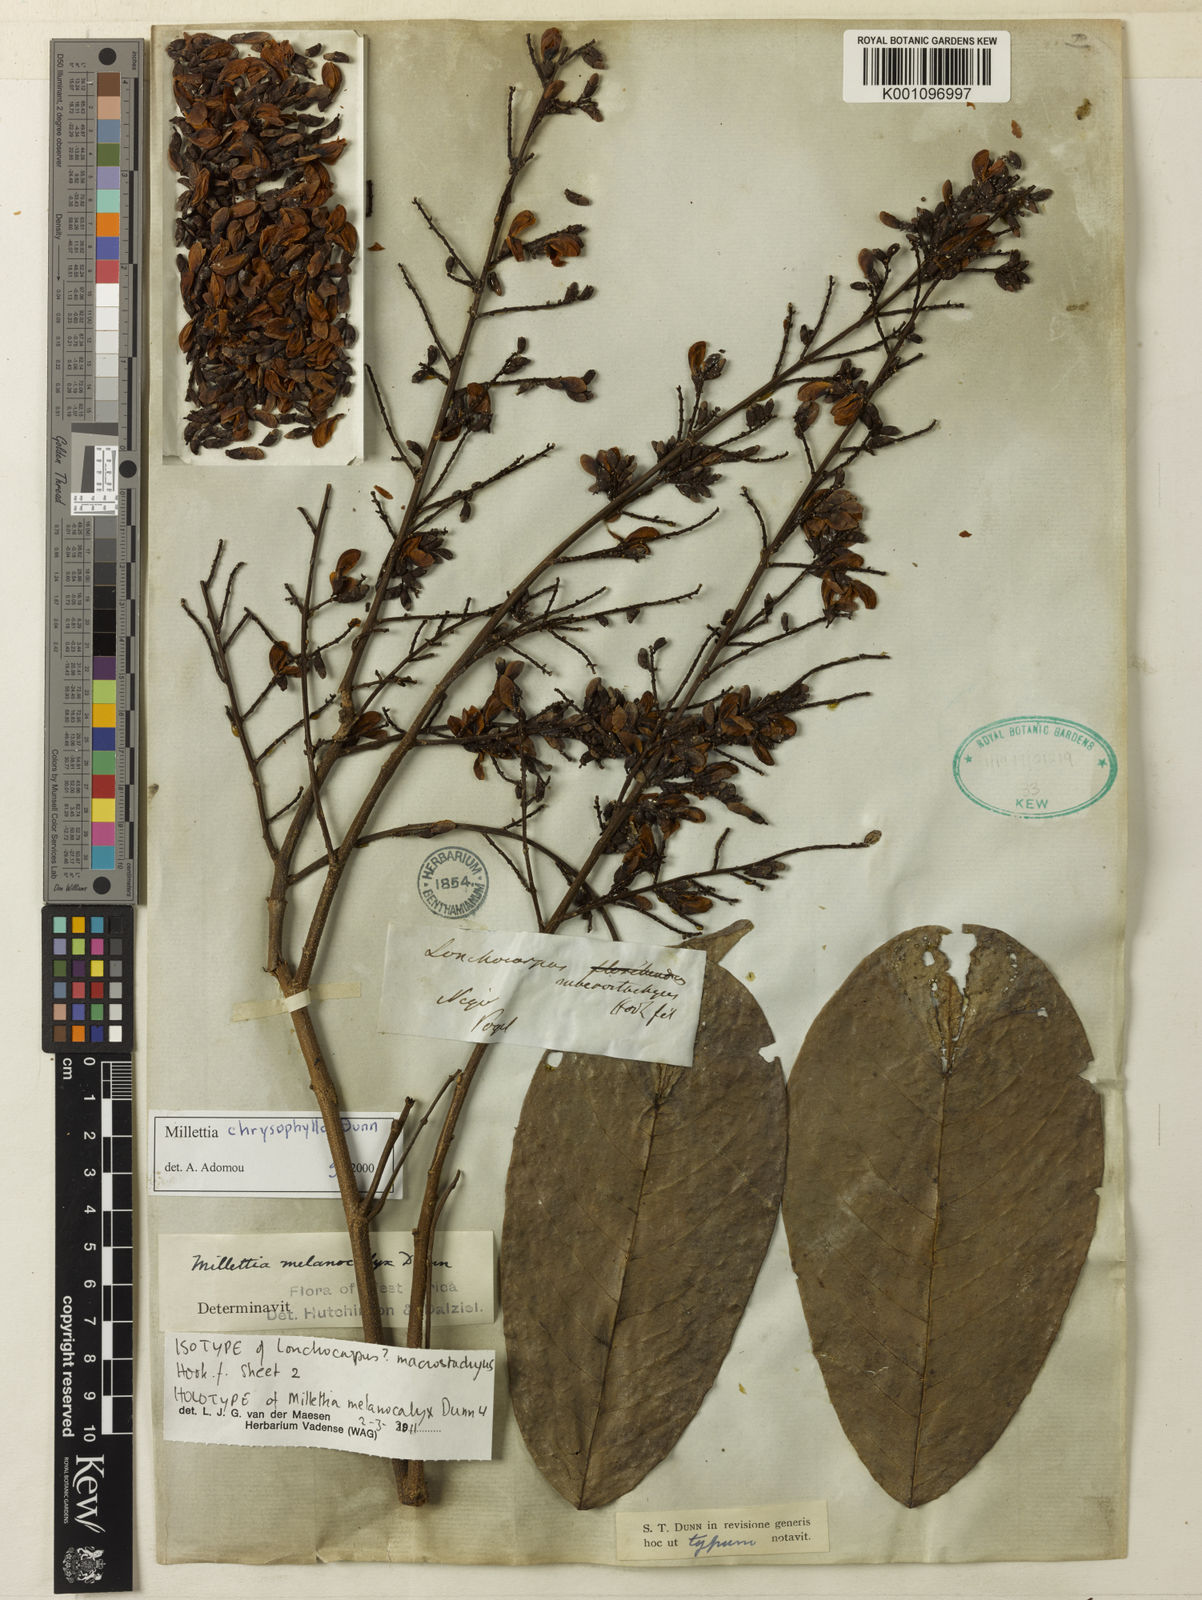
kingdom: Plantae
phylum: Tracheophyta
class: Magnoliopsida
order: Fabales
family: Fabaceae
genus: Millettia
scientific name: Millettia chrysophylla
